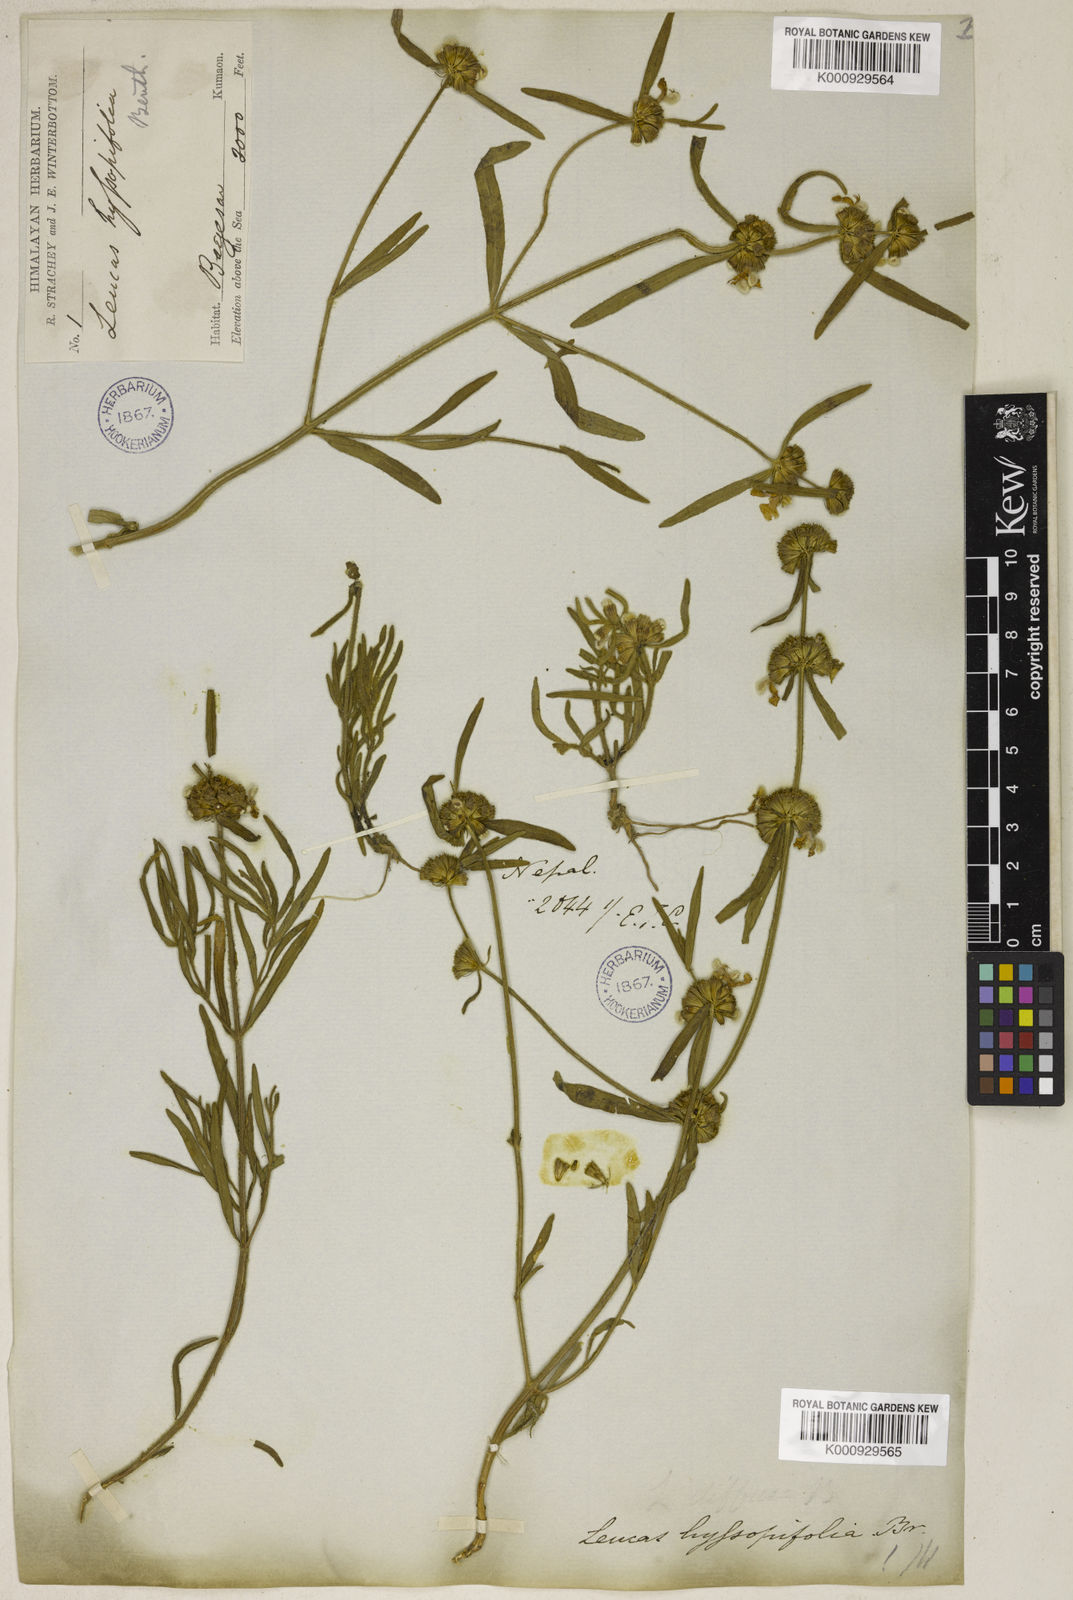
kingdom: Plantae
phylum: Tracheophyta
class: Magnoliopsida
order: Lamiales
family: Lamiaceae
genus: Leucas
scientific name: Leucas hyssopifolia
